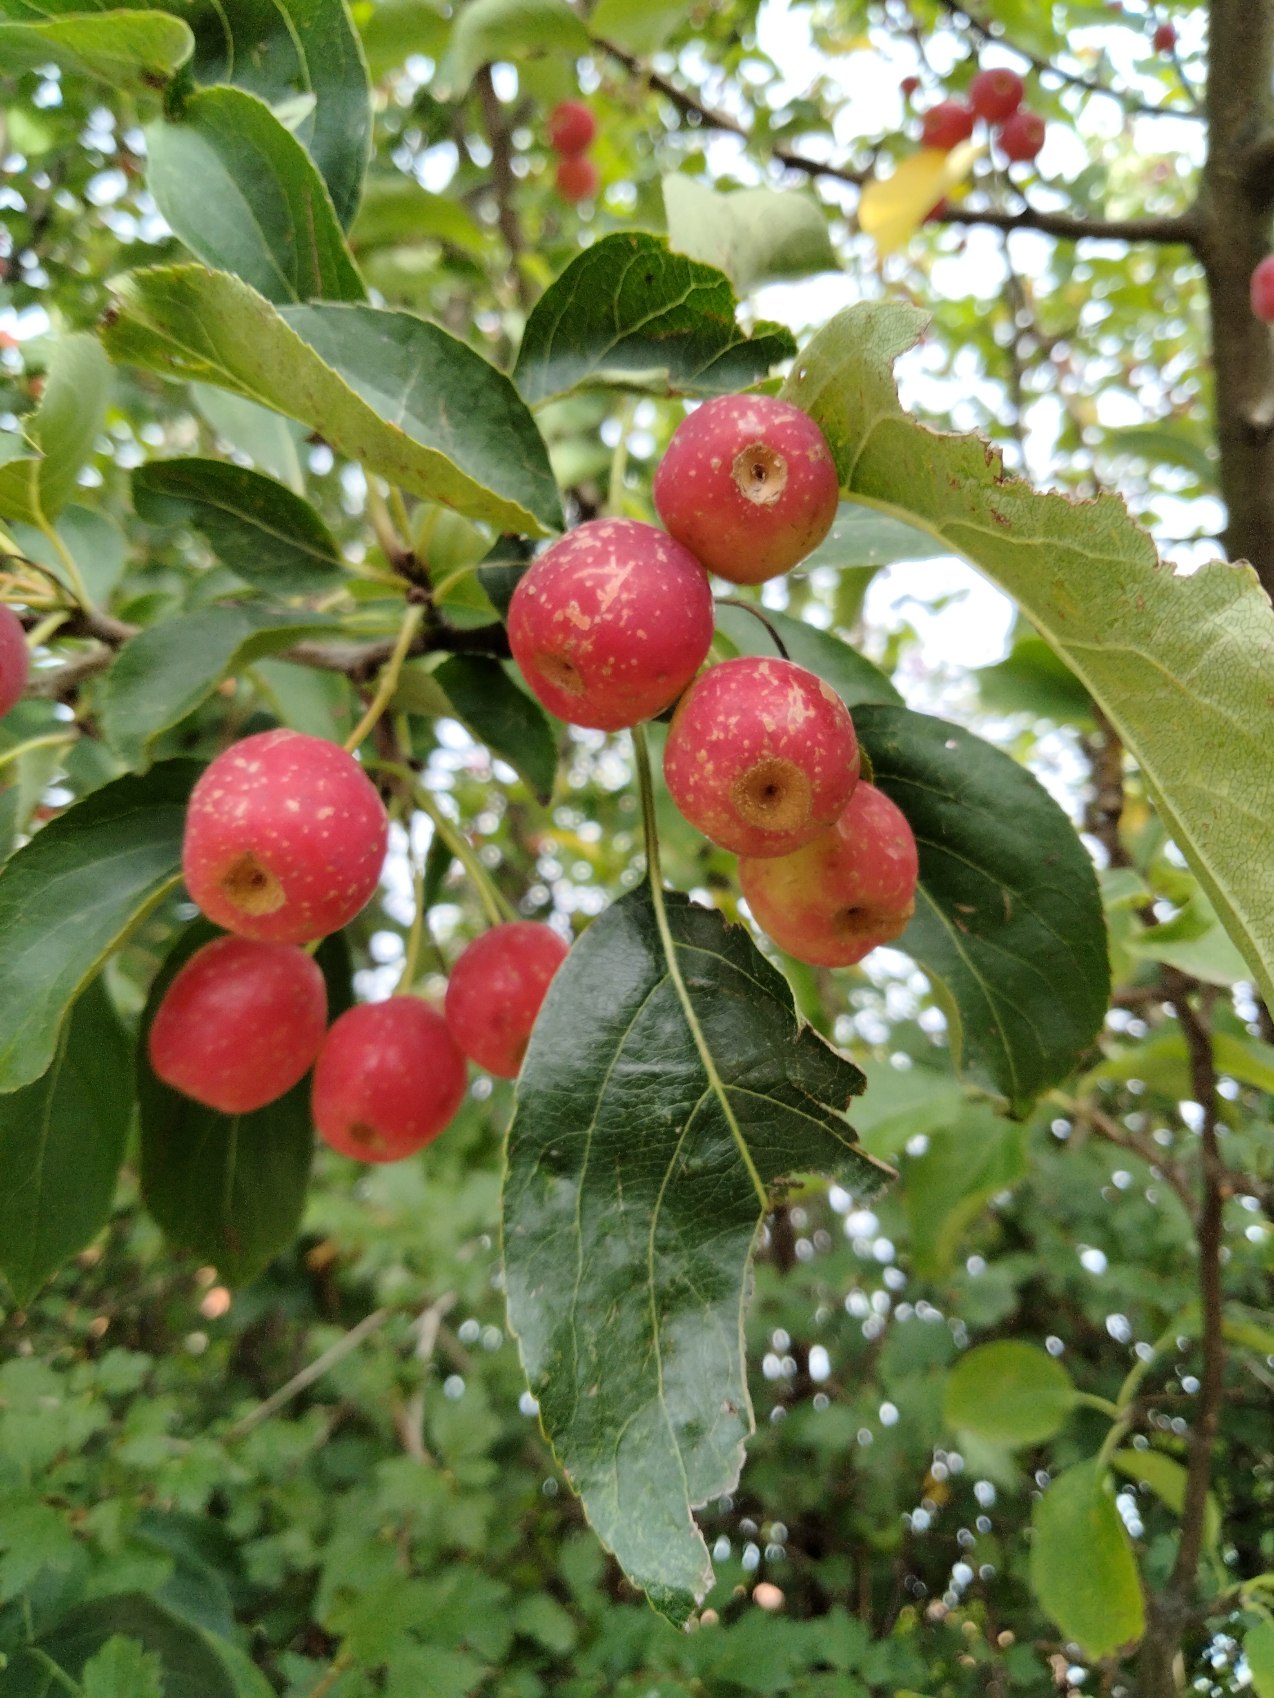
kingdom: Plantae
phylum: Tracheophyta
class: Magnoliopsida
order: Rosales
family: Rosaceae
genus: Malus
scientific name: Malus baccata
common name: Bær-æble
